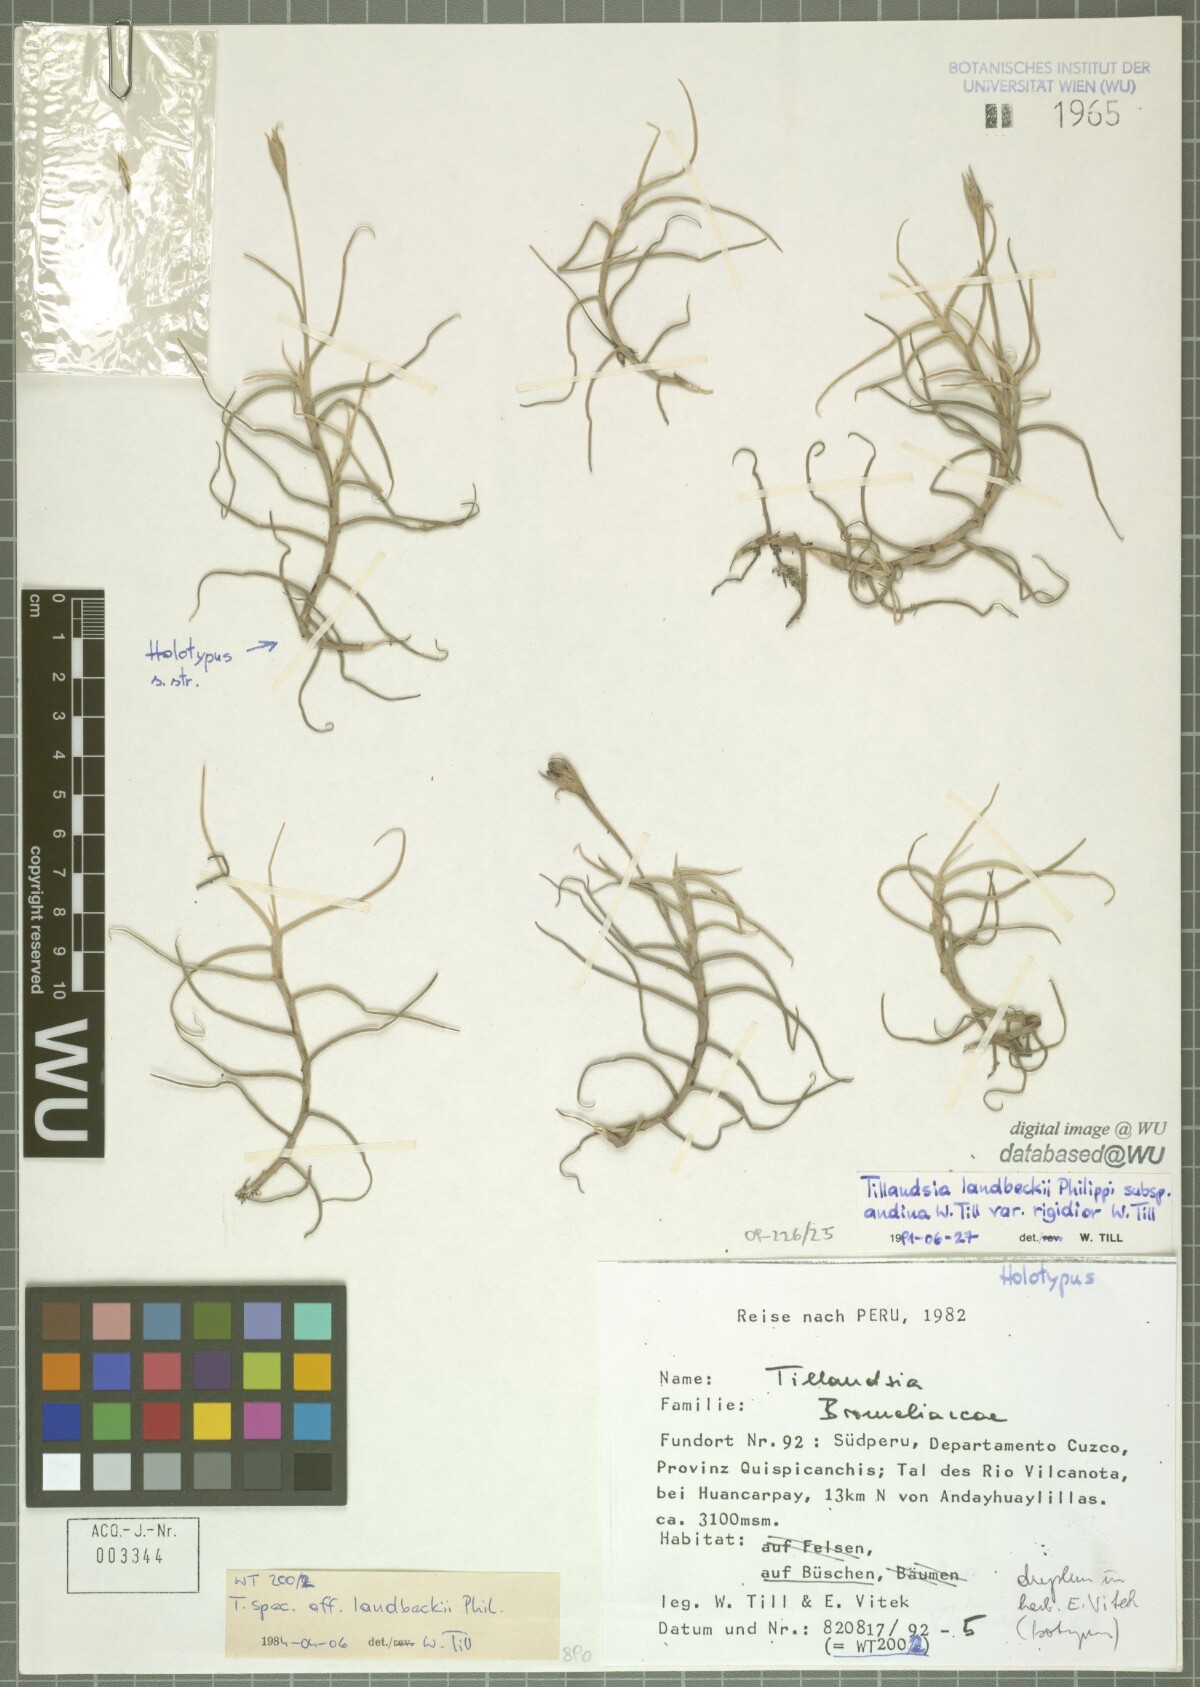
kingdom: Plantae
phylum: Tracheophyta
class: Liliopsida
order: Poales
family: Bromeliaceae
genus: Tillandsia
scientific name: Tillandsia landbeckii
